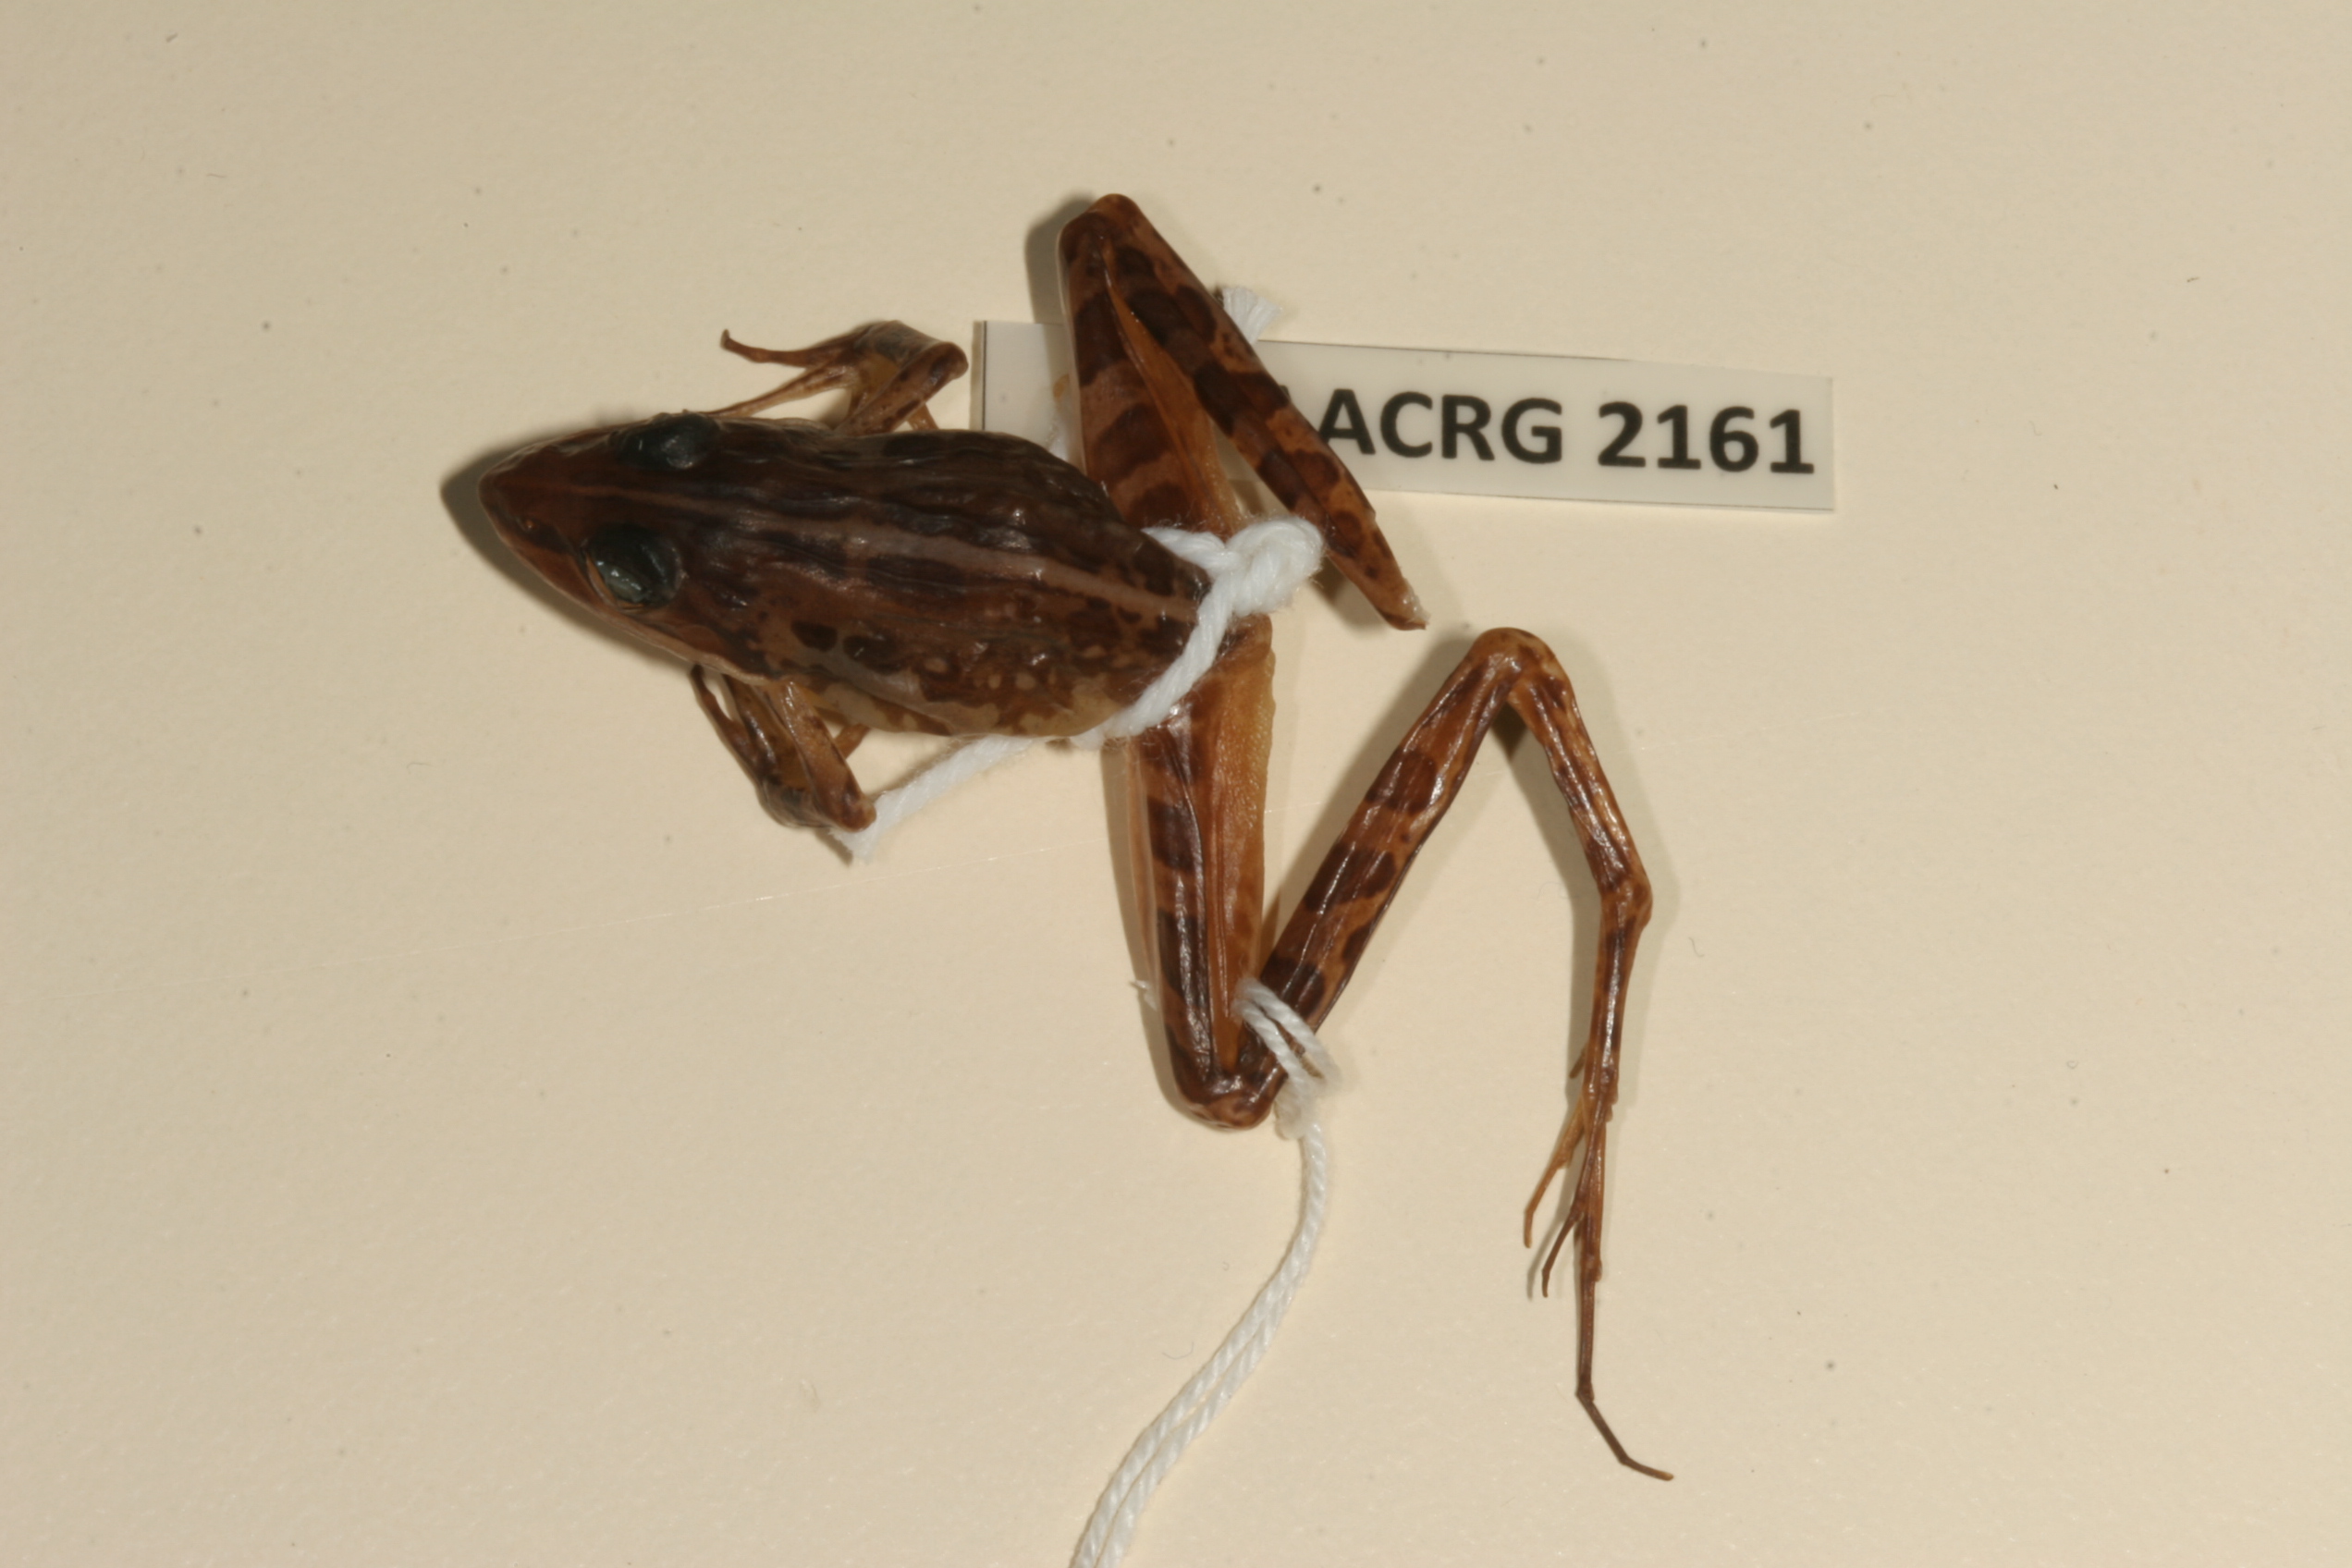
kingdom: Animalia
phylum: Chordata
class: Amphibia
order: Anura
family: Pyxicephalidae
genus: Strongylopus
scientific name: Strongylopus bonaespei
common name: Banded stream frog
